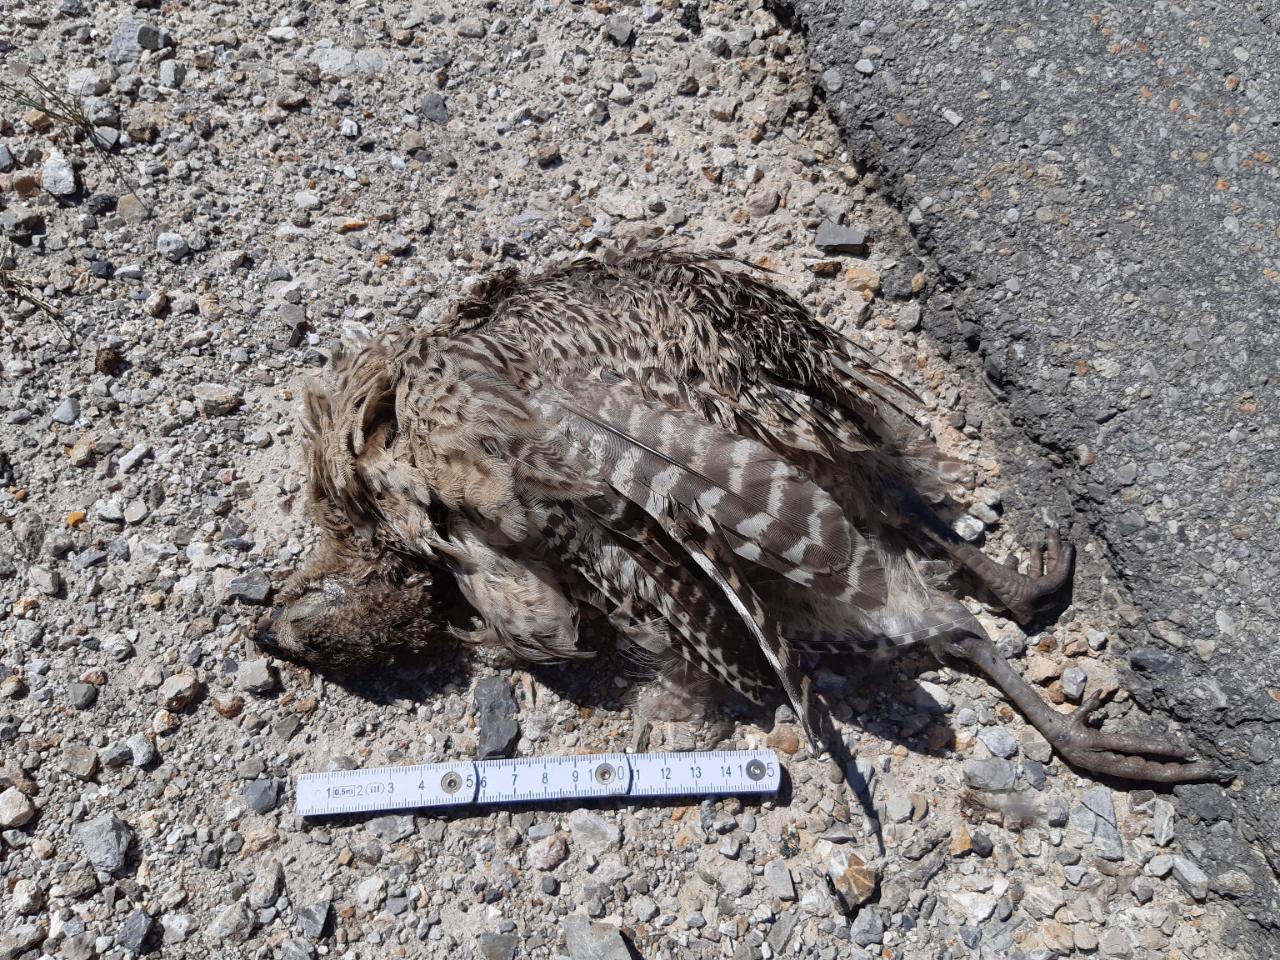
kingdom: Animalia
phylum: Chordata
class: Aves
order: Galliformes
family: Phasianidae
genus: Phasianus
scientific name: Phasianus colchicus
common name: Common pheasant
